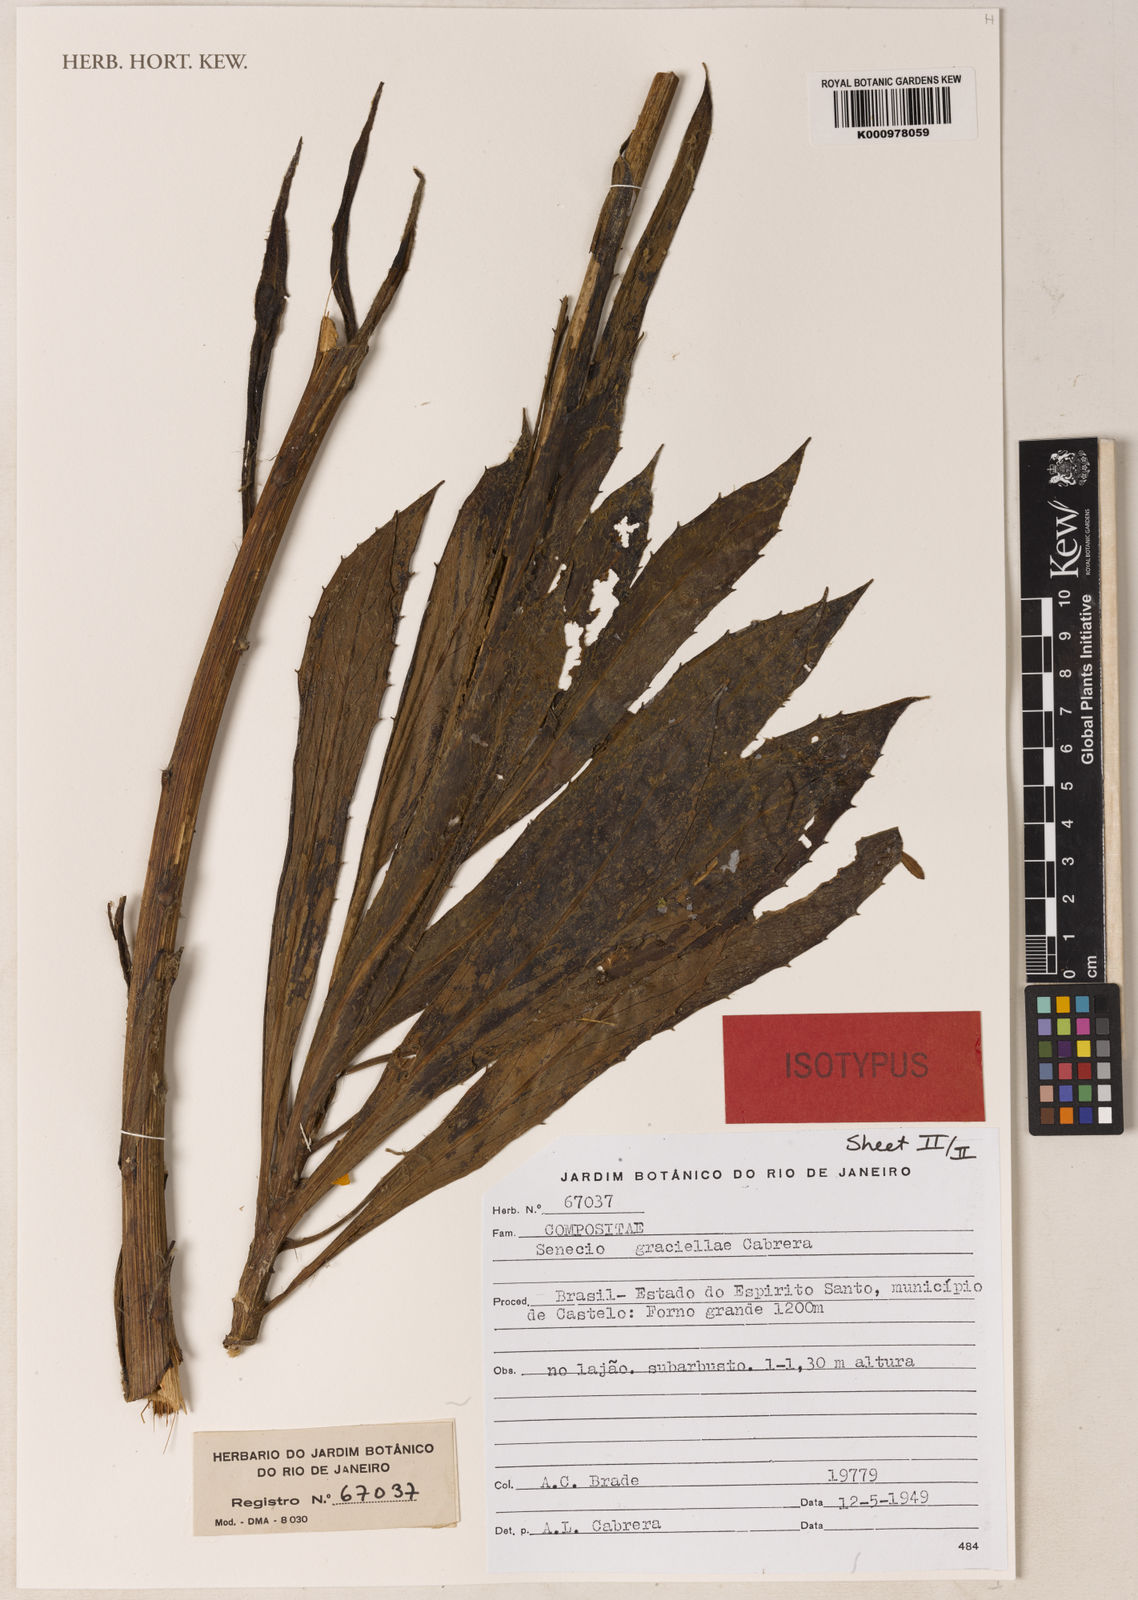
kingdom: Plantae
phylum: Tracheophyta
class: Magnoliopsida
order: Asterales
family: Asteraceae
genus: Senecio
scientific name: Senecio graciellae
